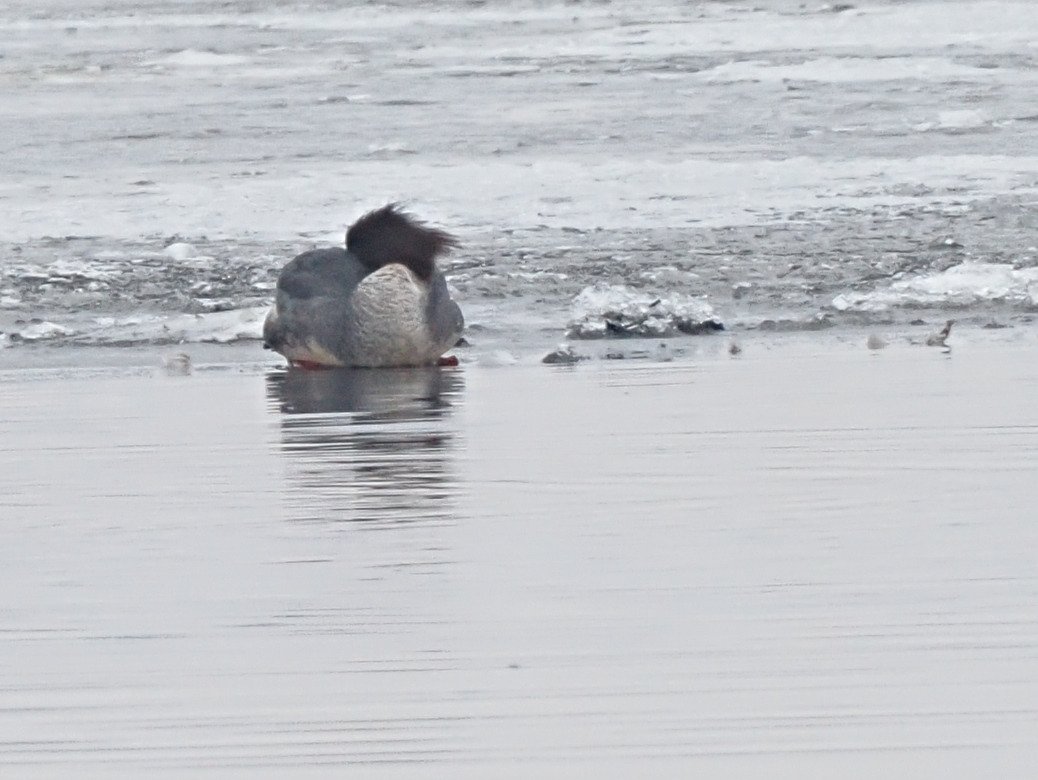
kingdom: Animalia
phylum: Chordata
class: Aves
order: Anseriformes
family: Anatidae
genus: Mergus
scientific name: Mergus merganser
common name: Stor skallesluger
